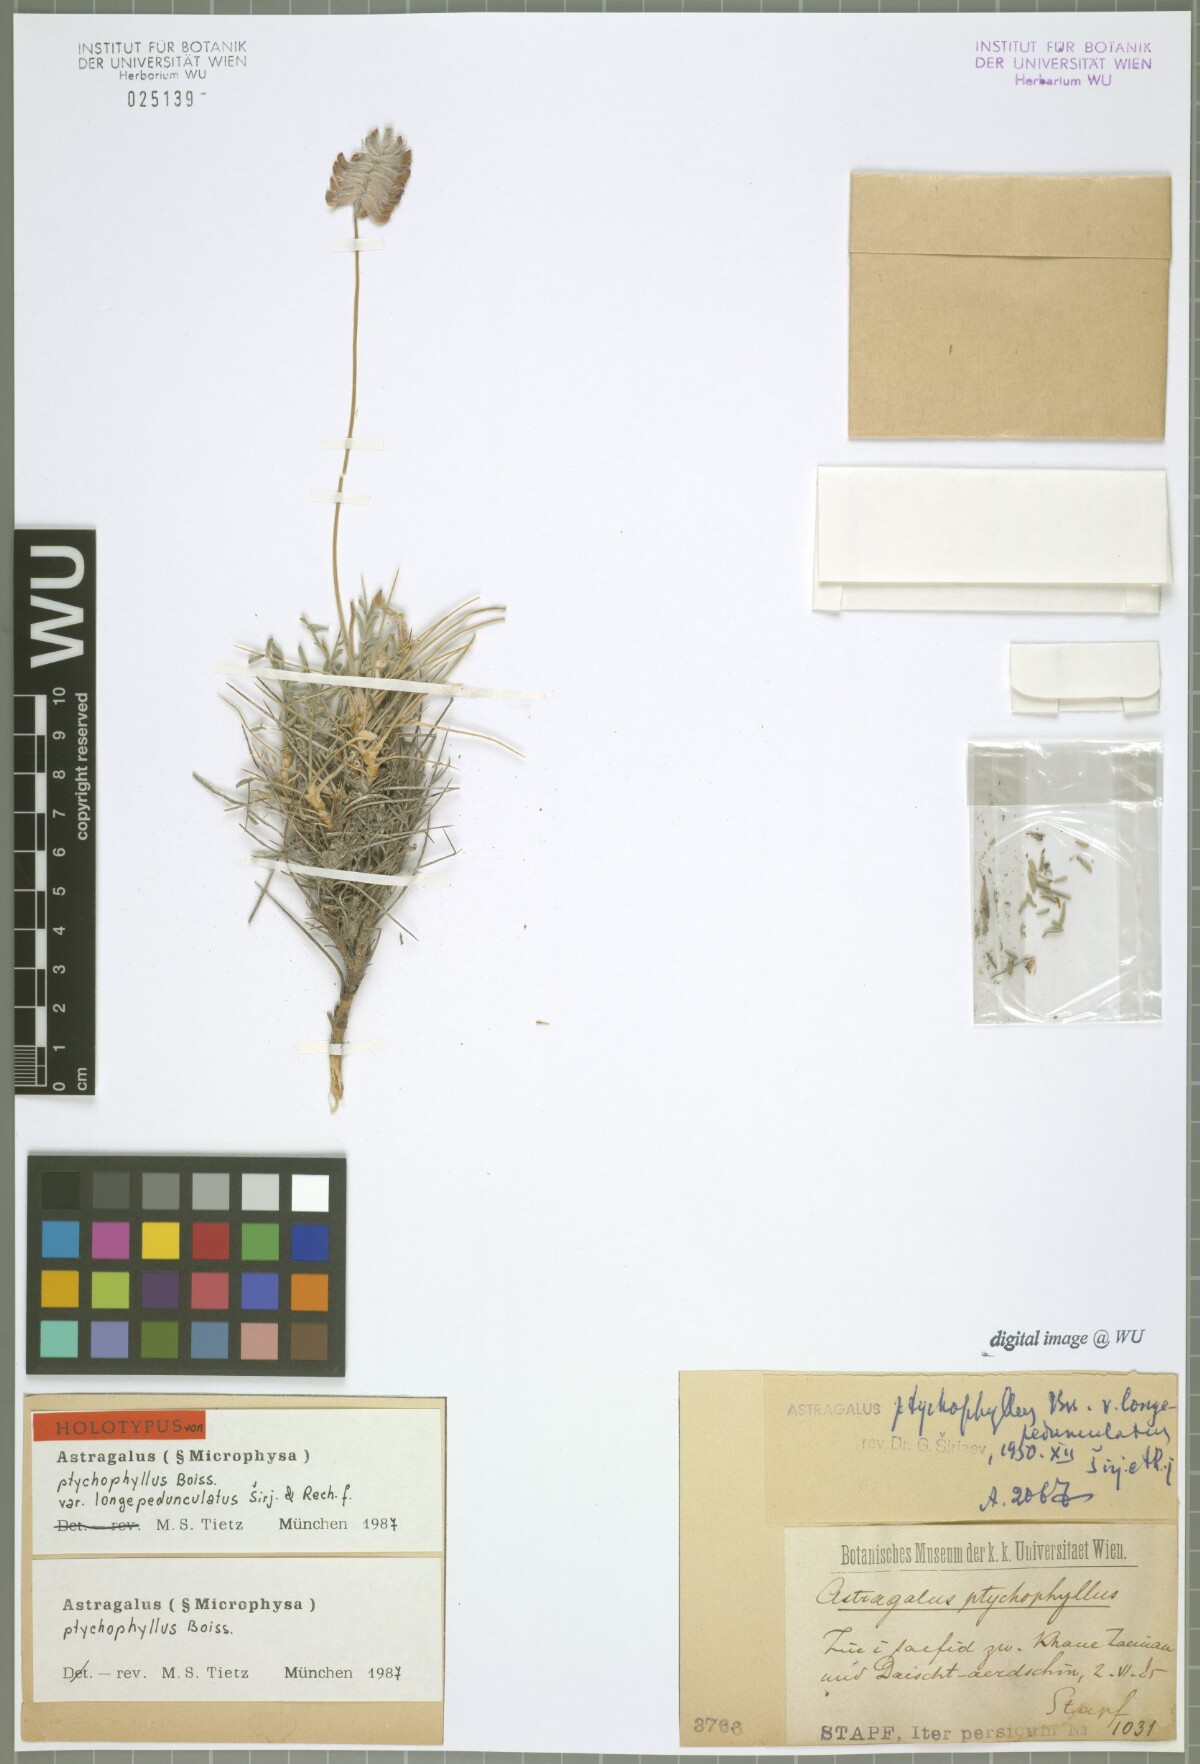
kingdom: Plantae
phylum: Tracheophyta
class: Magnoliopsida
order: Fabales
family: Fabaceae
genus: Astragalus
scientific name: Astragalus ptychophyllus
